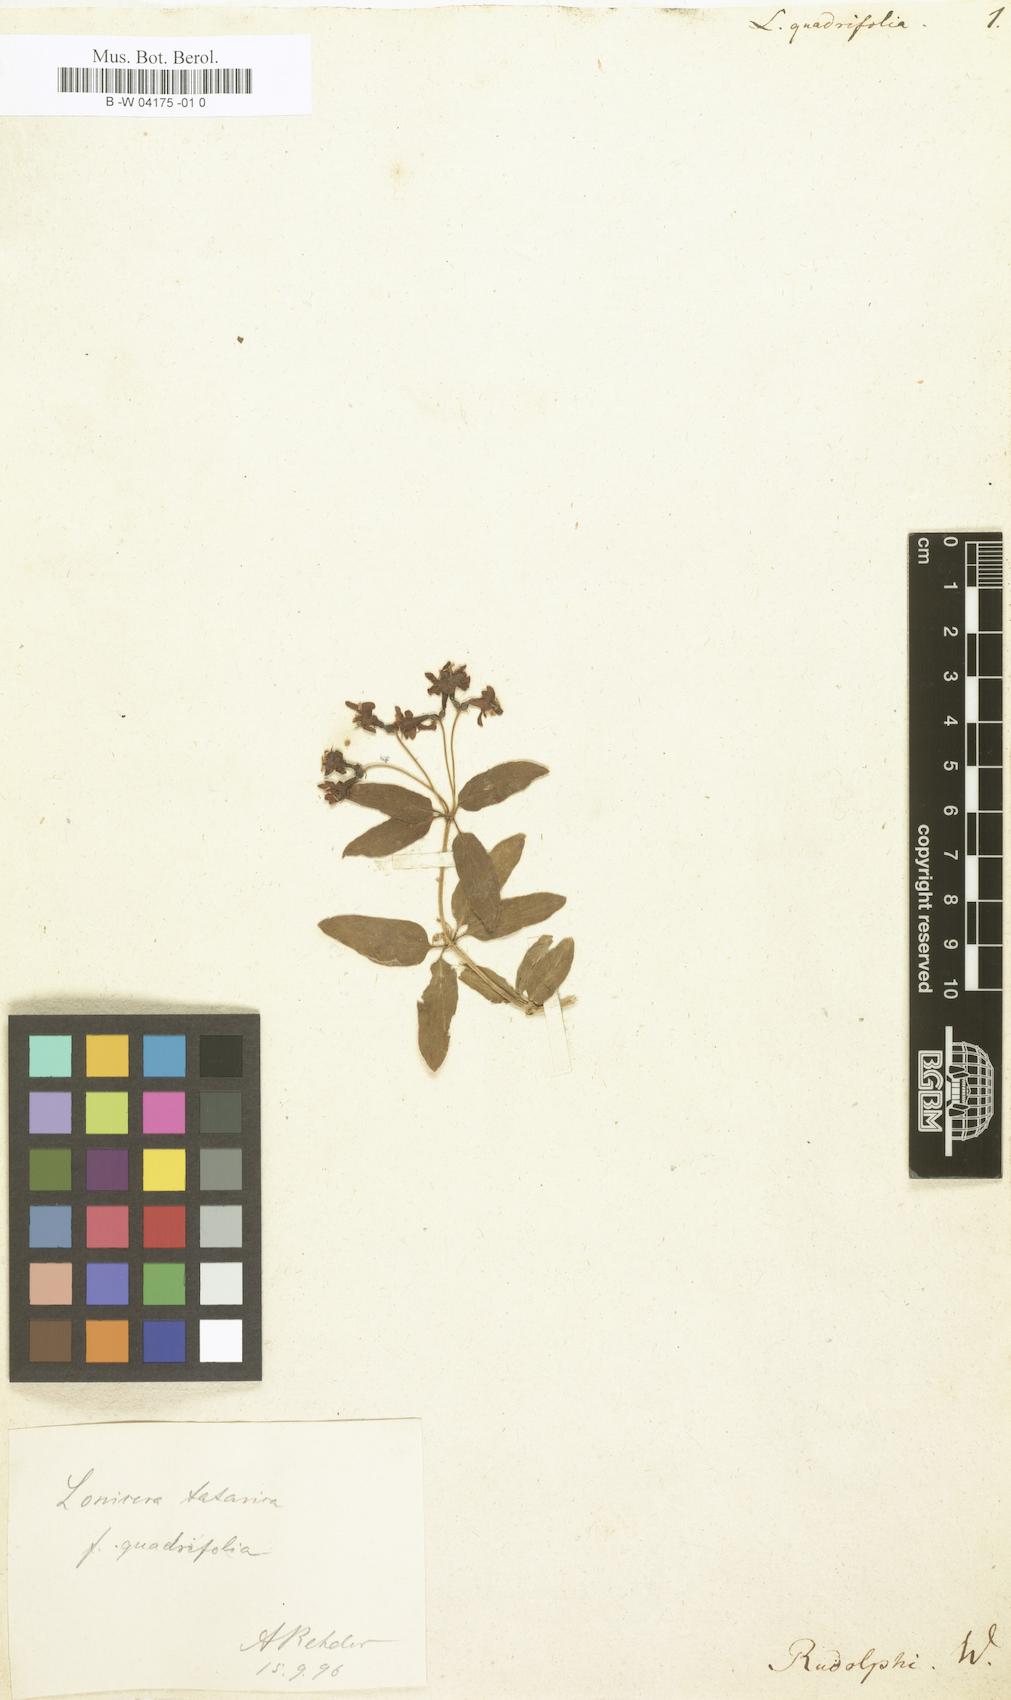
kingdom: Plantae
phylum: Tracheophyta
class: Magnoliopsida
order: Dipsacales
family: Caprifoliaceae
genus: Lonicera
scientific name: Lonicera quadrifolia
